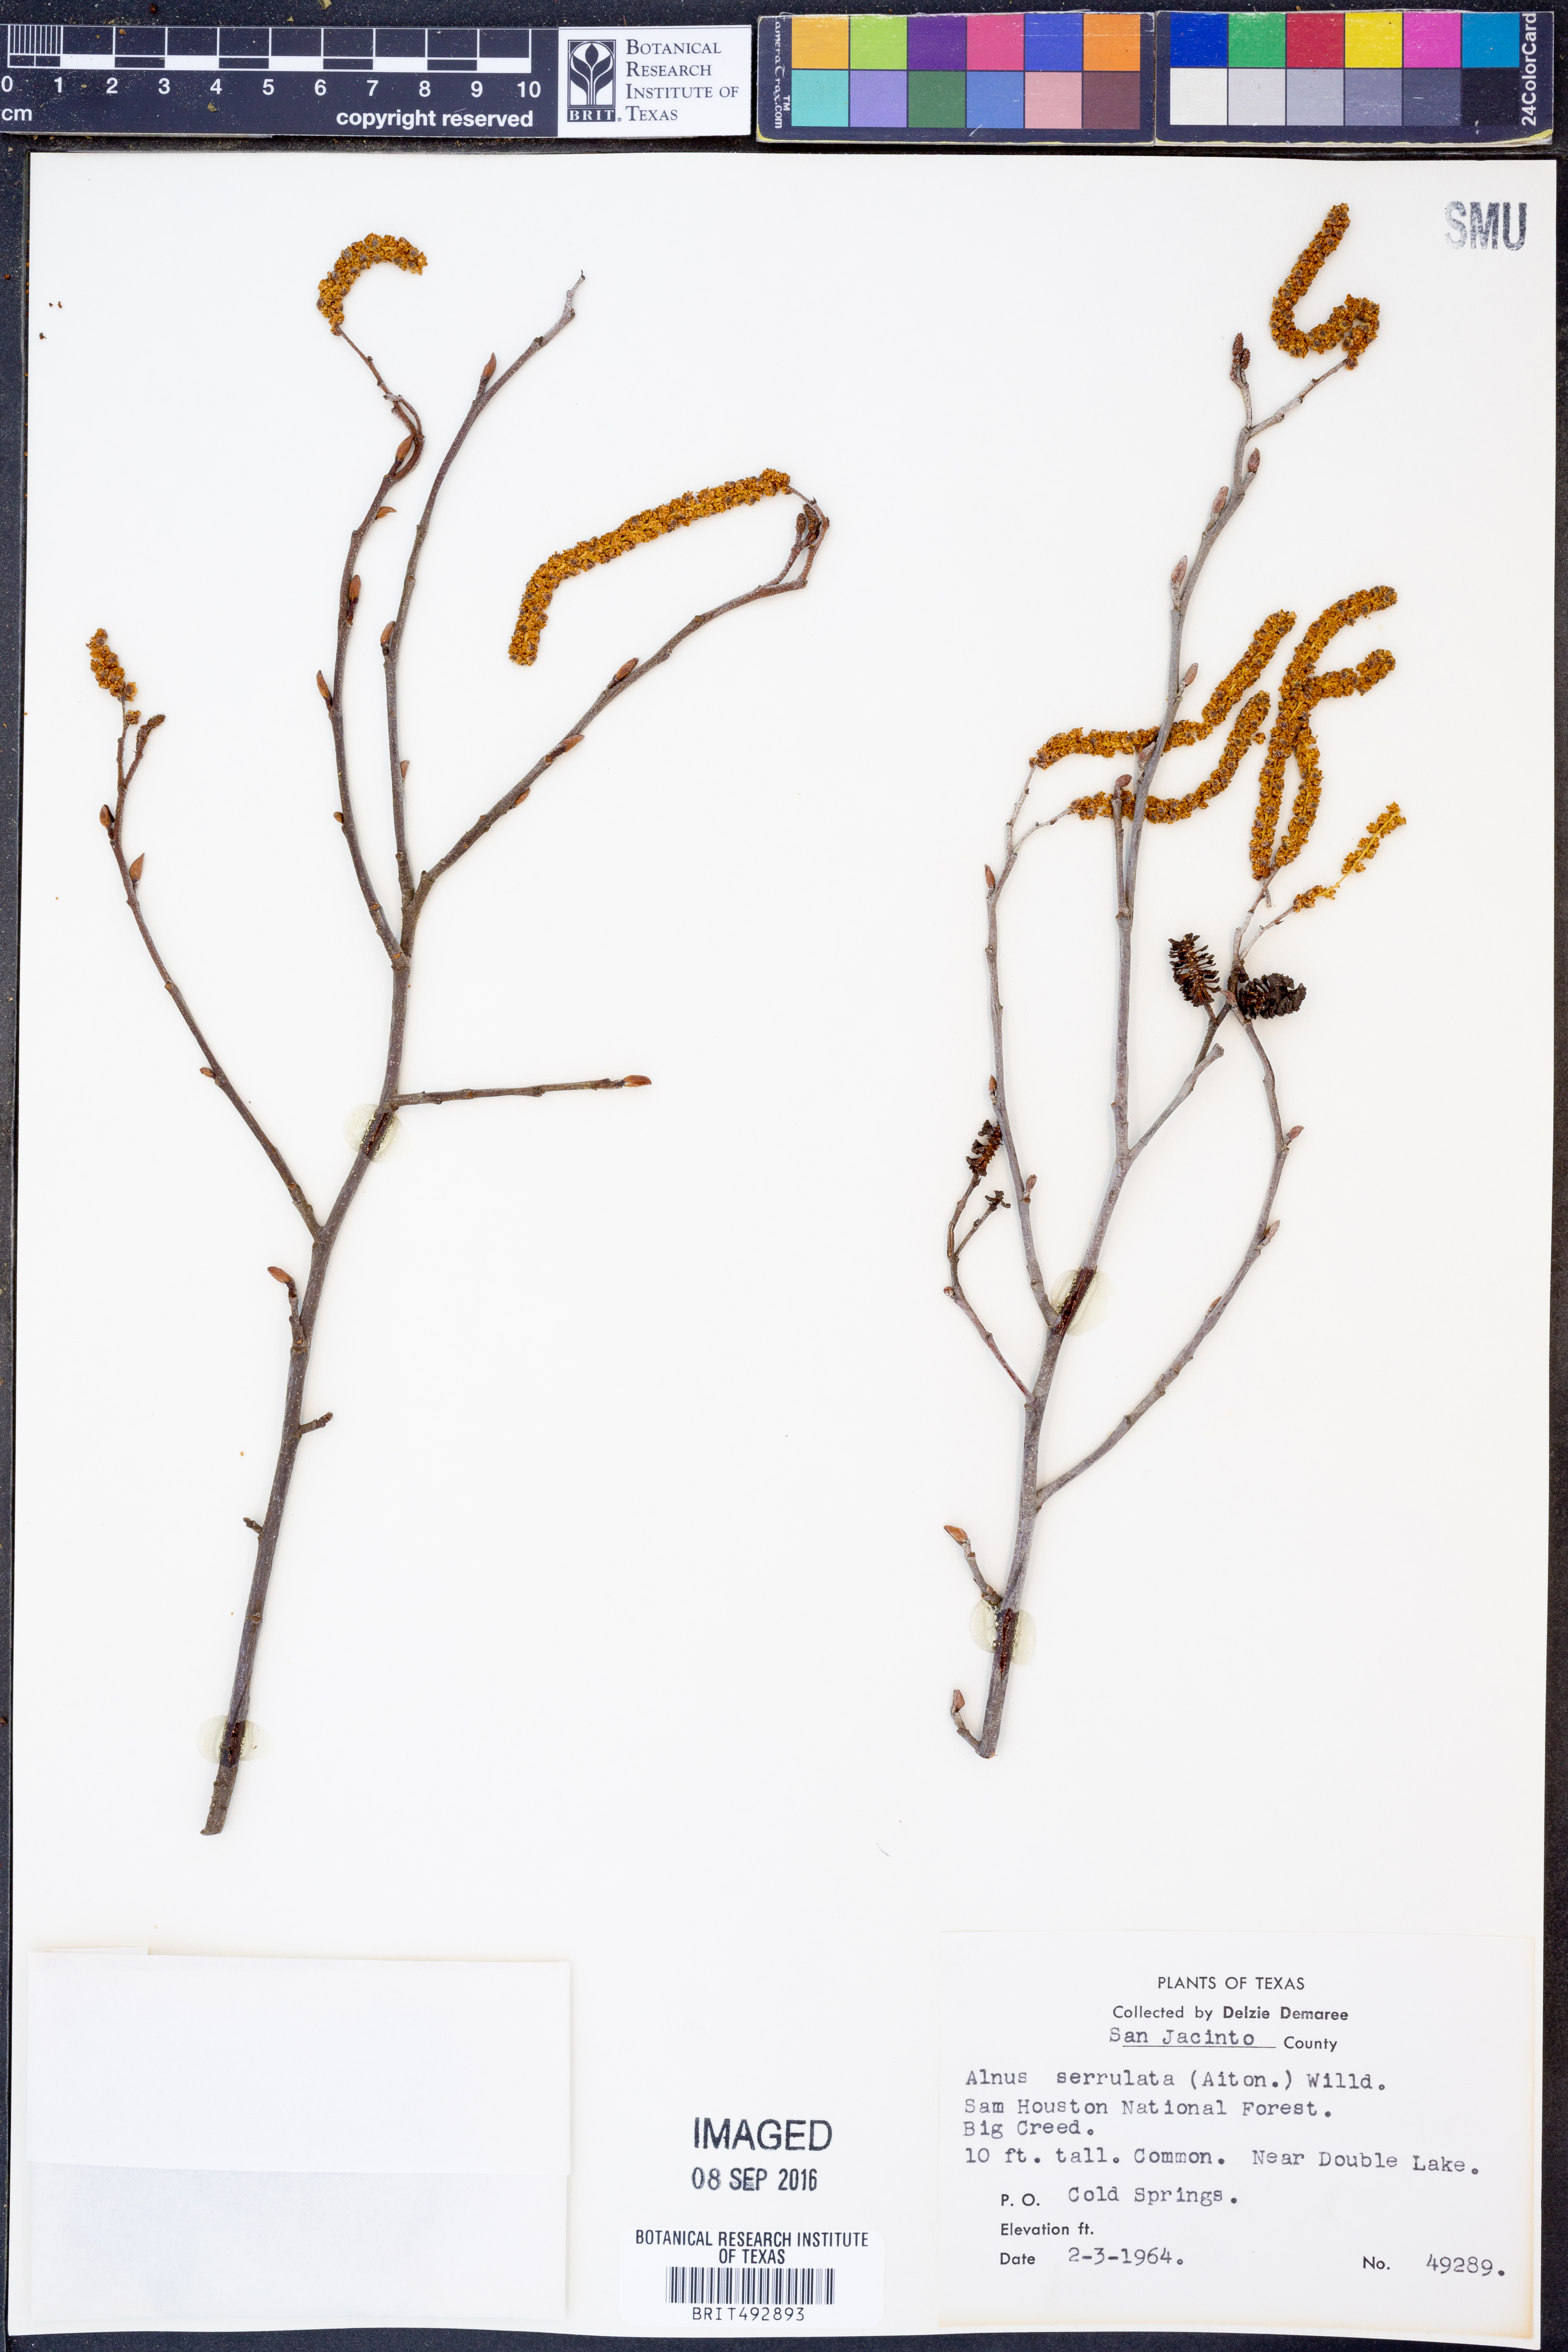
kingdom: Plantae
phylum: Tracheophyta
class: Magnoliopsida
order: Fagales
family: Betulaceae
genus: Alnus
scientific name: Alnus serrulata
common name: Hazel alder
